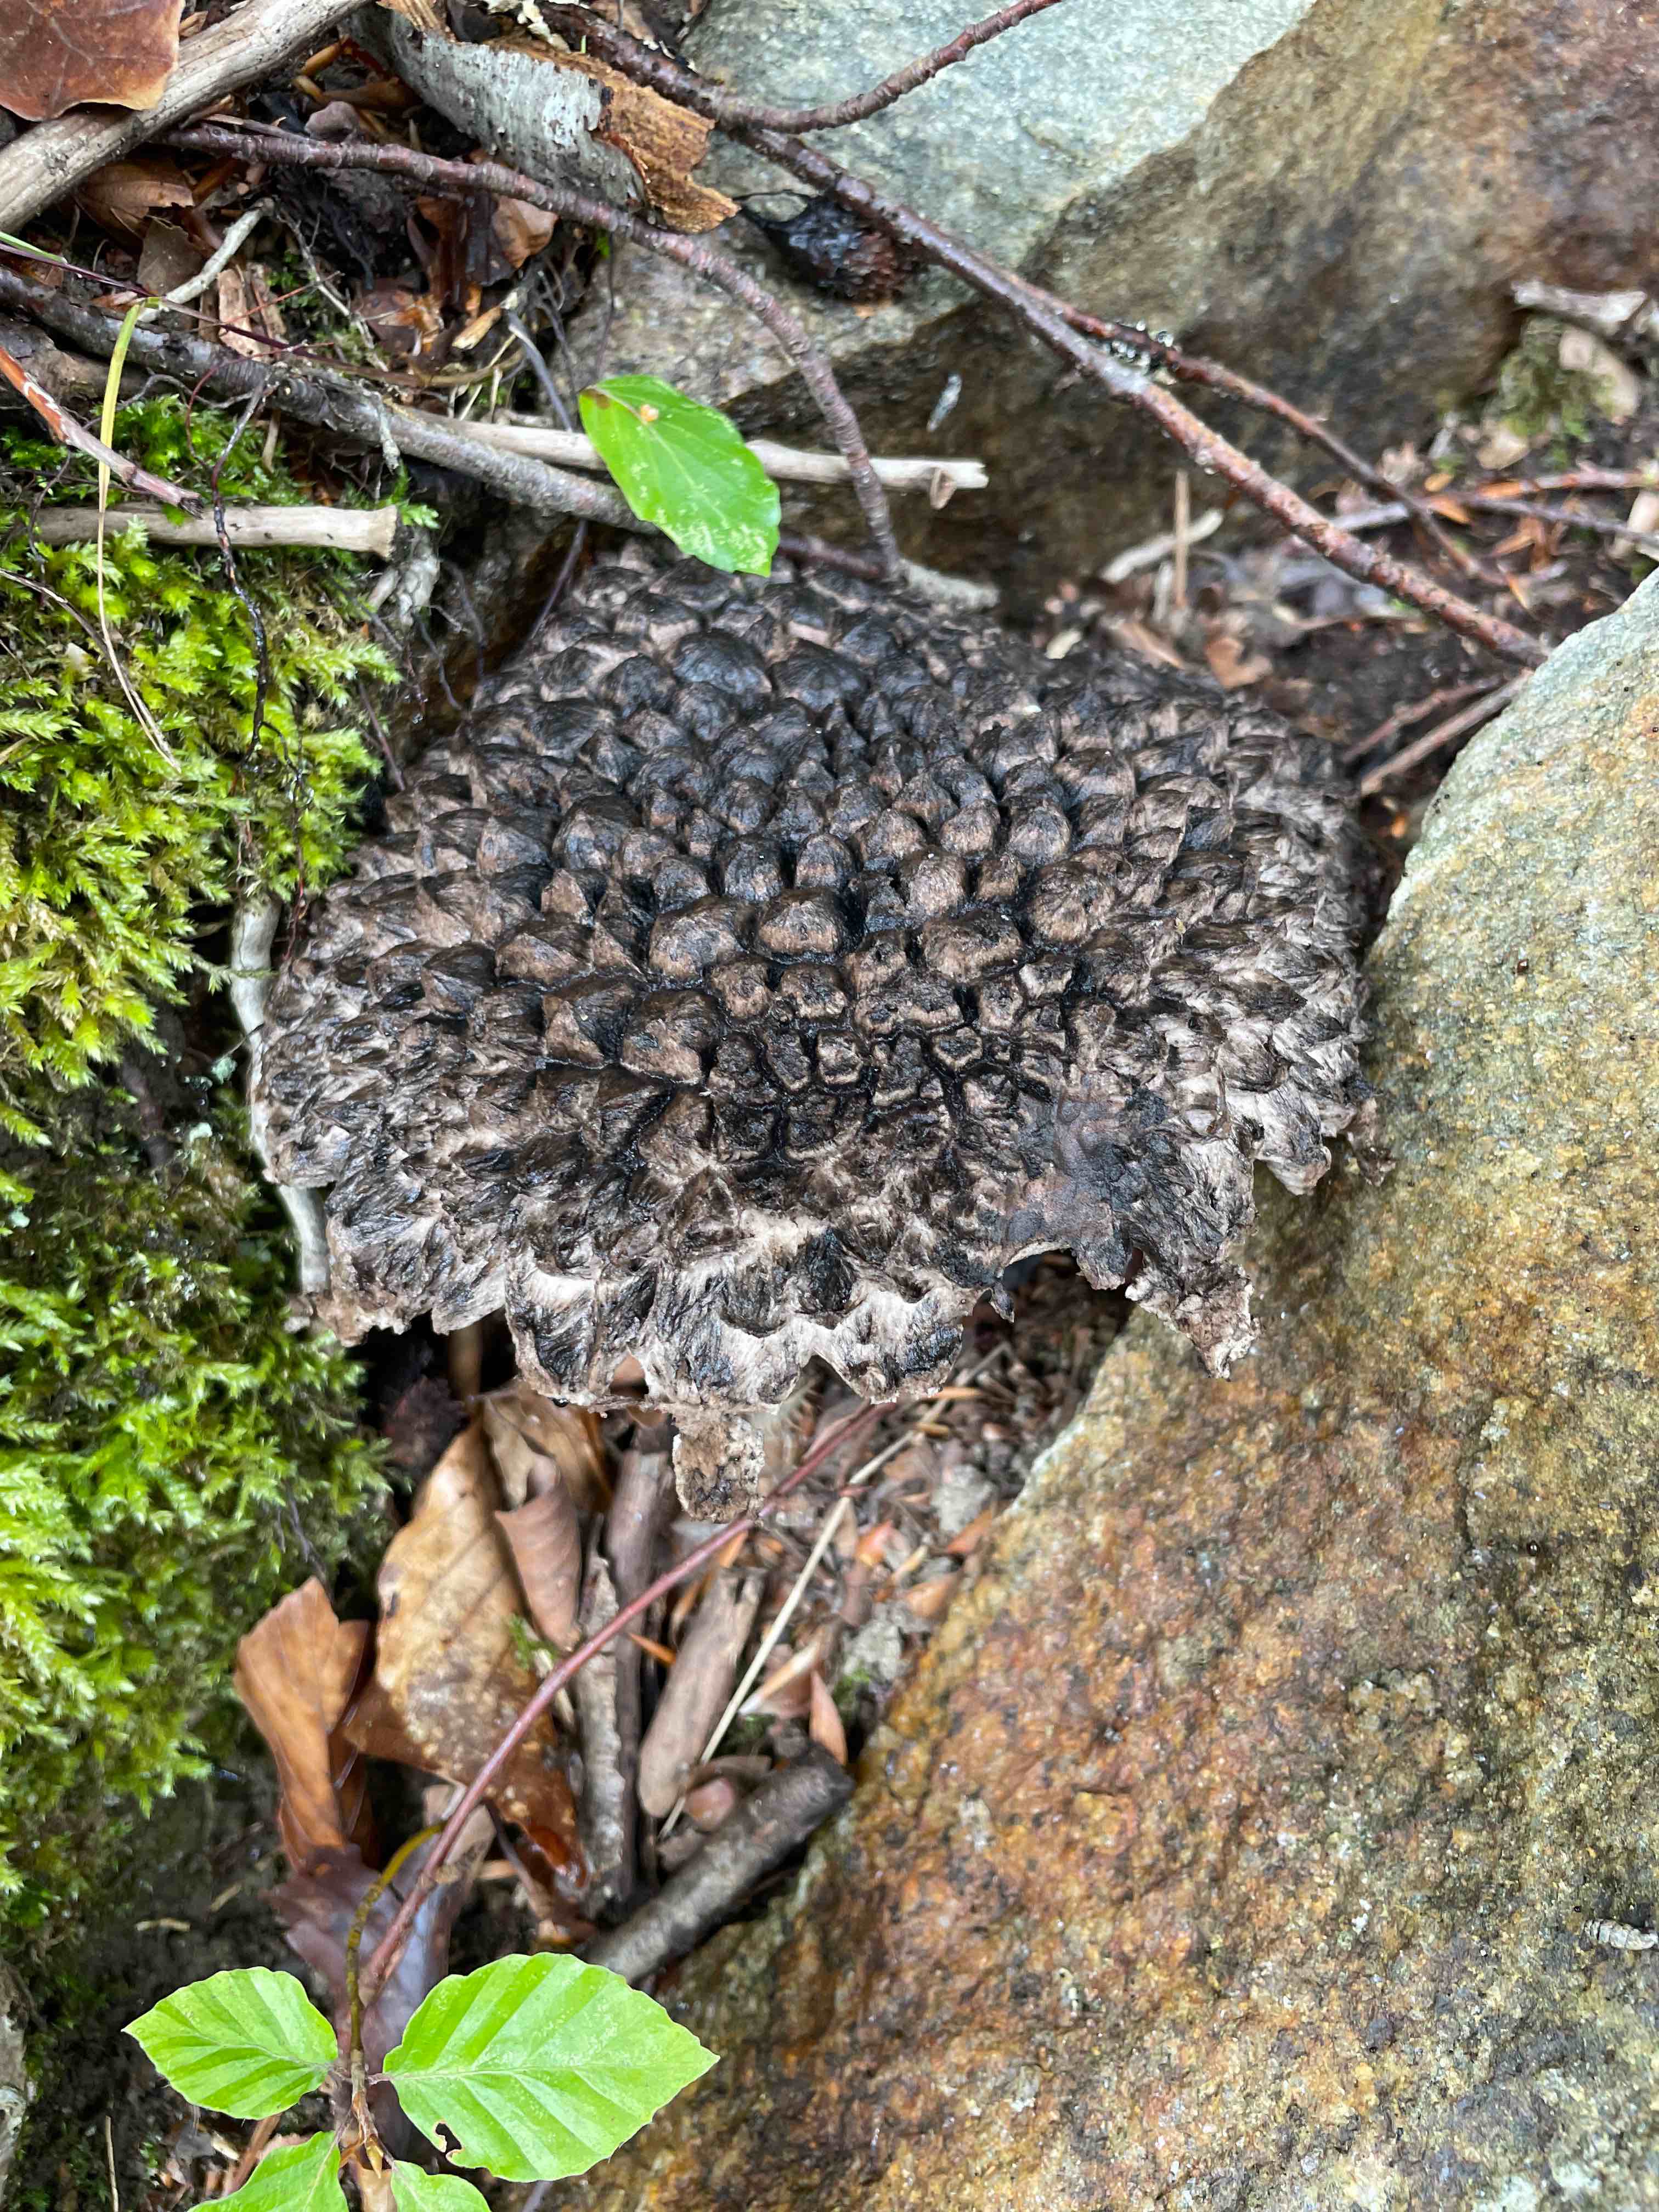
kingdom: Fungi
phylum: Basidiomycota
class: Agaricomycetes
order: Boletales
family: Boletaceae
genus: Strobilomyces
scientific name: Strobilomyces strobilaceus
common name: koglerørhat
